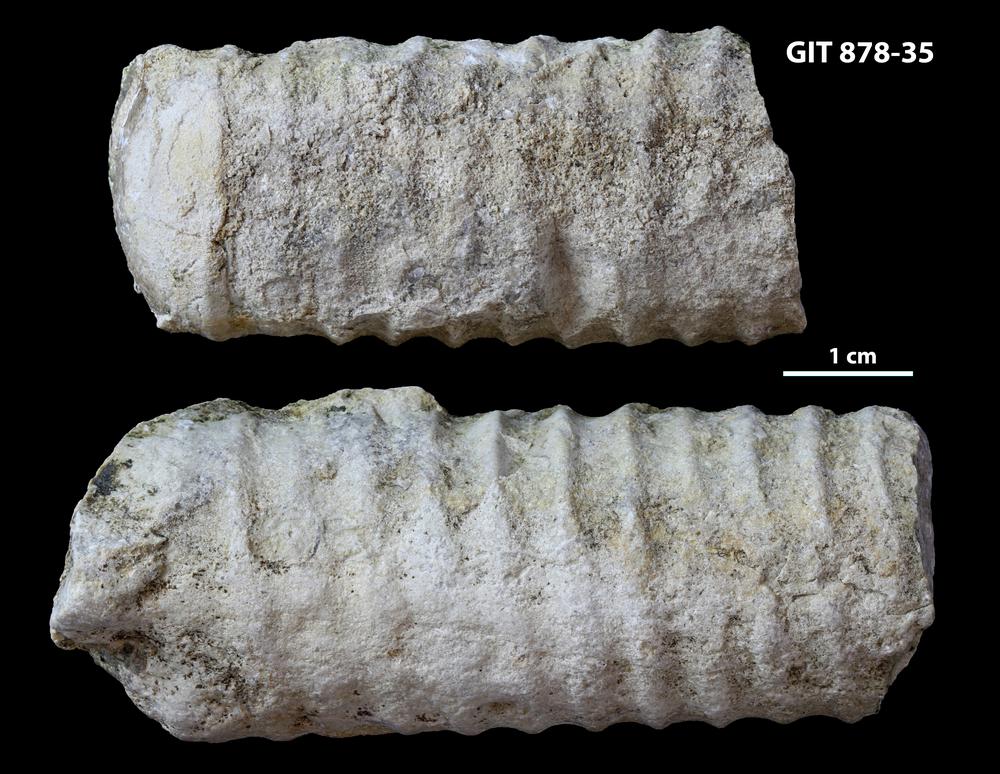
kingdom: Animalia
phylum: Mollusca
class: Cephalopoda
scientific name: Cephalopoda
